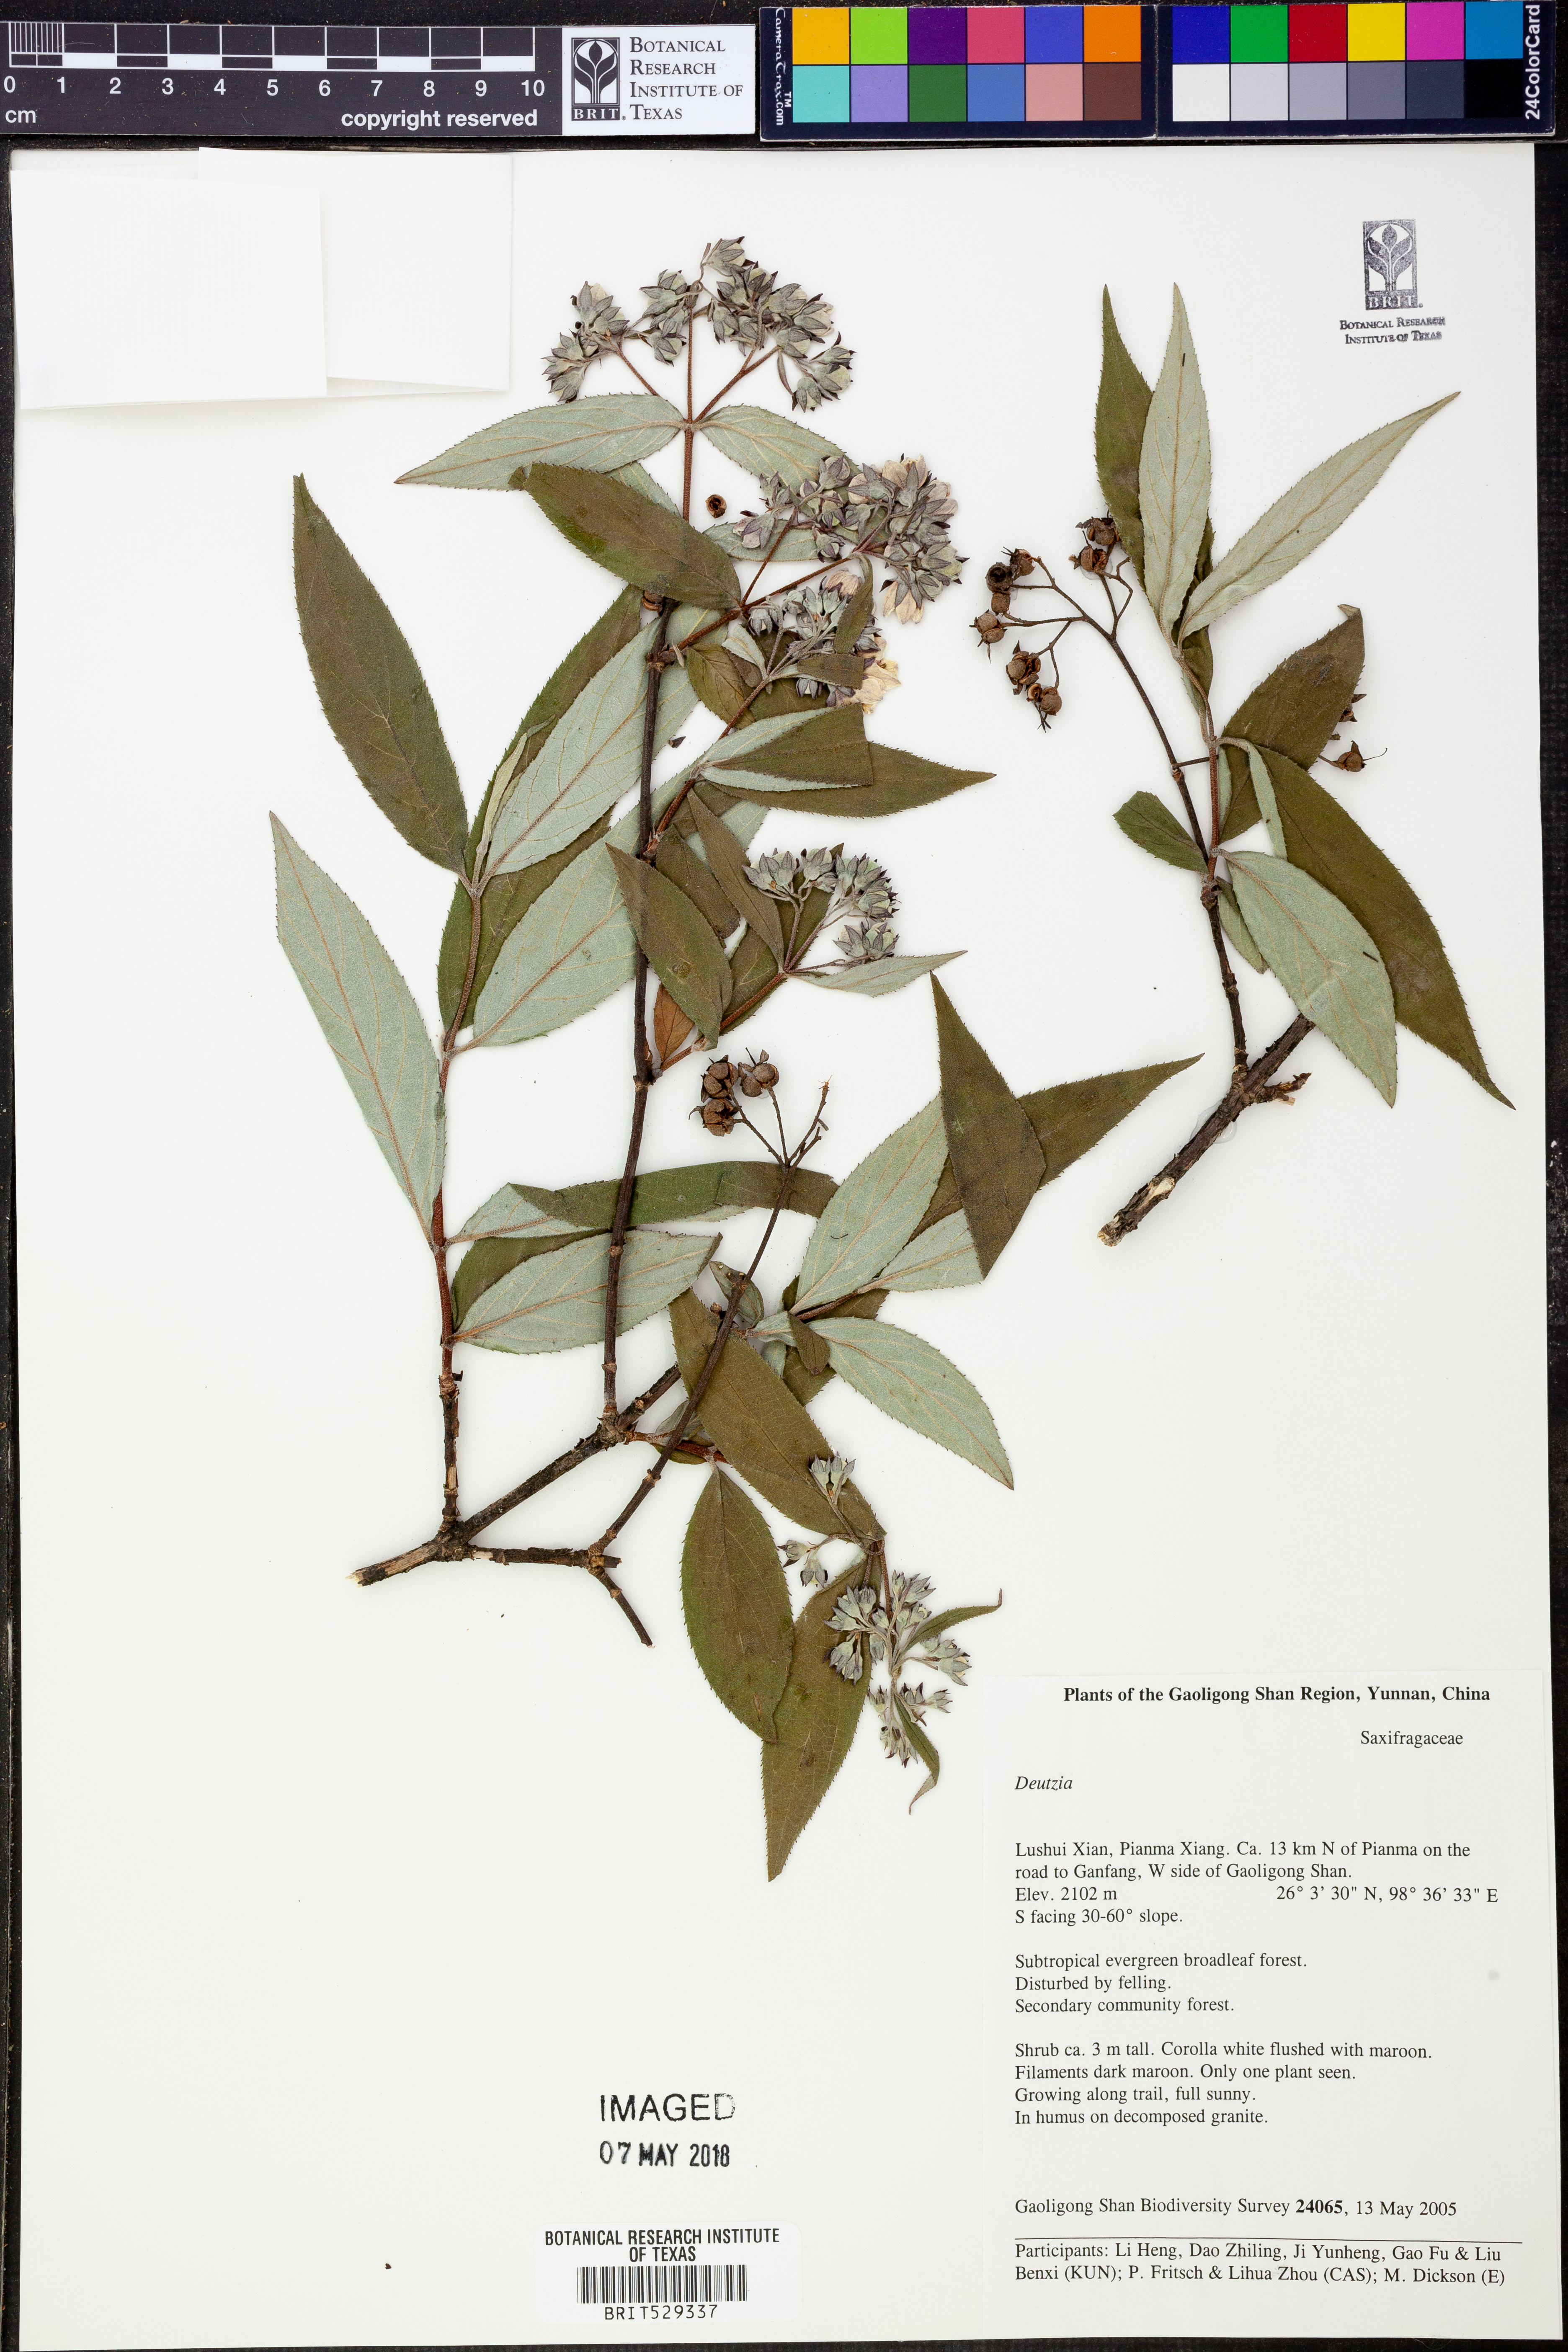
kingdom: Plantae
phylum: Tracheophyta
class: Magnoliopsida
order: Cornales
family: Hydrangeaceae
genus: Deutzia
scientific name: Deutzia
